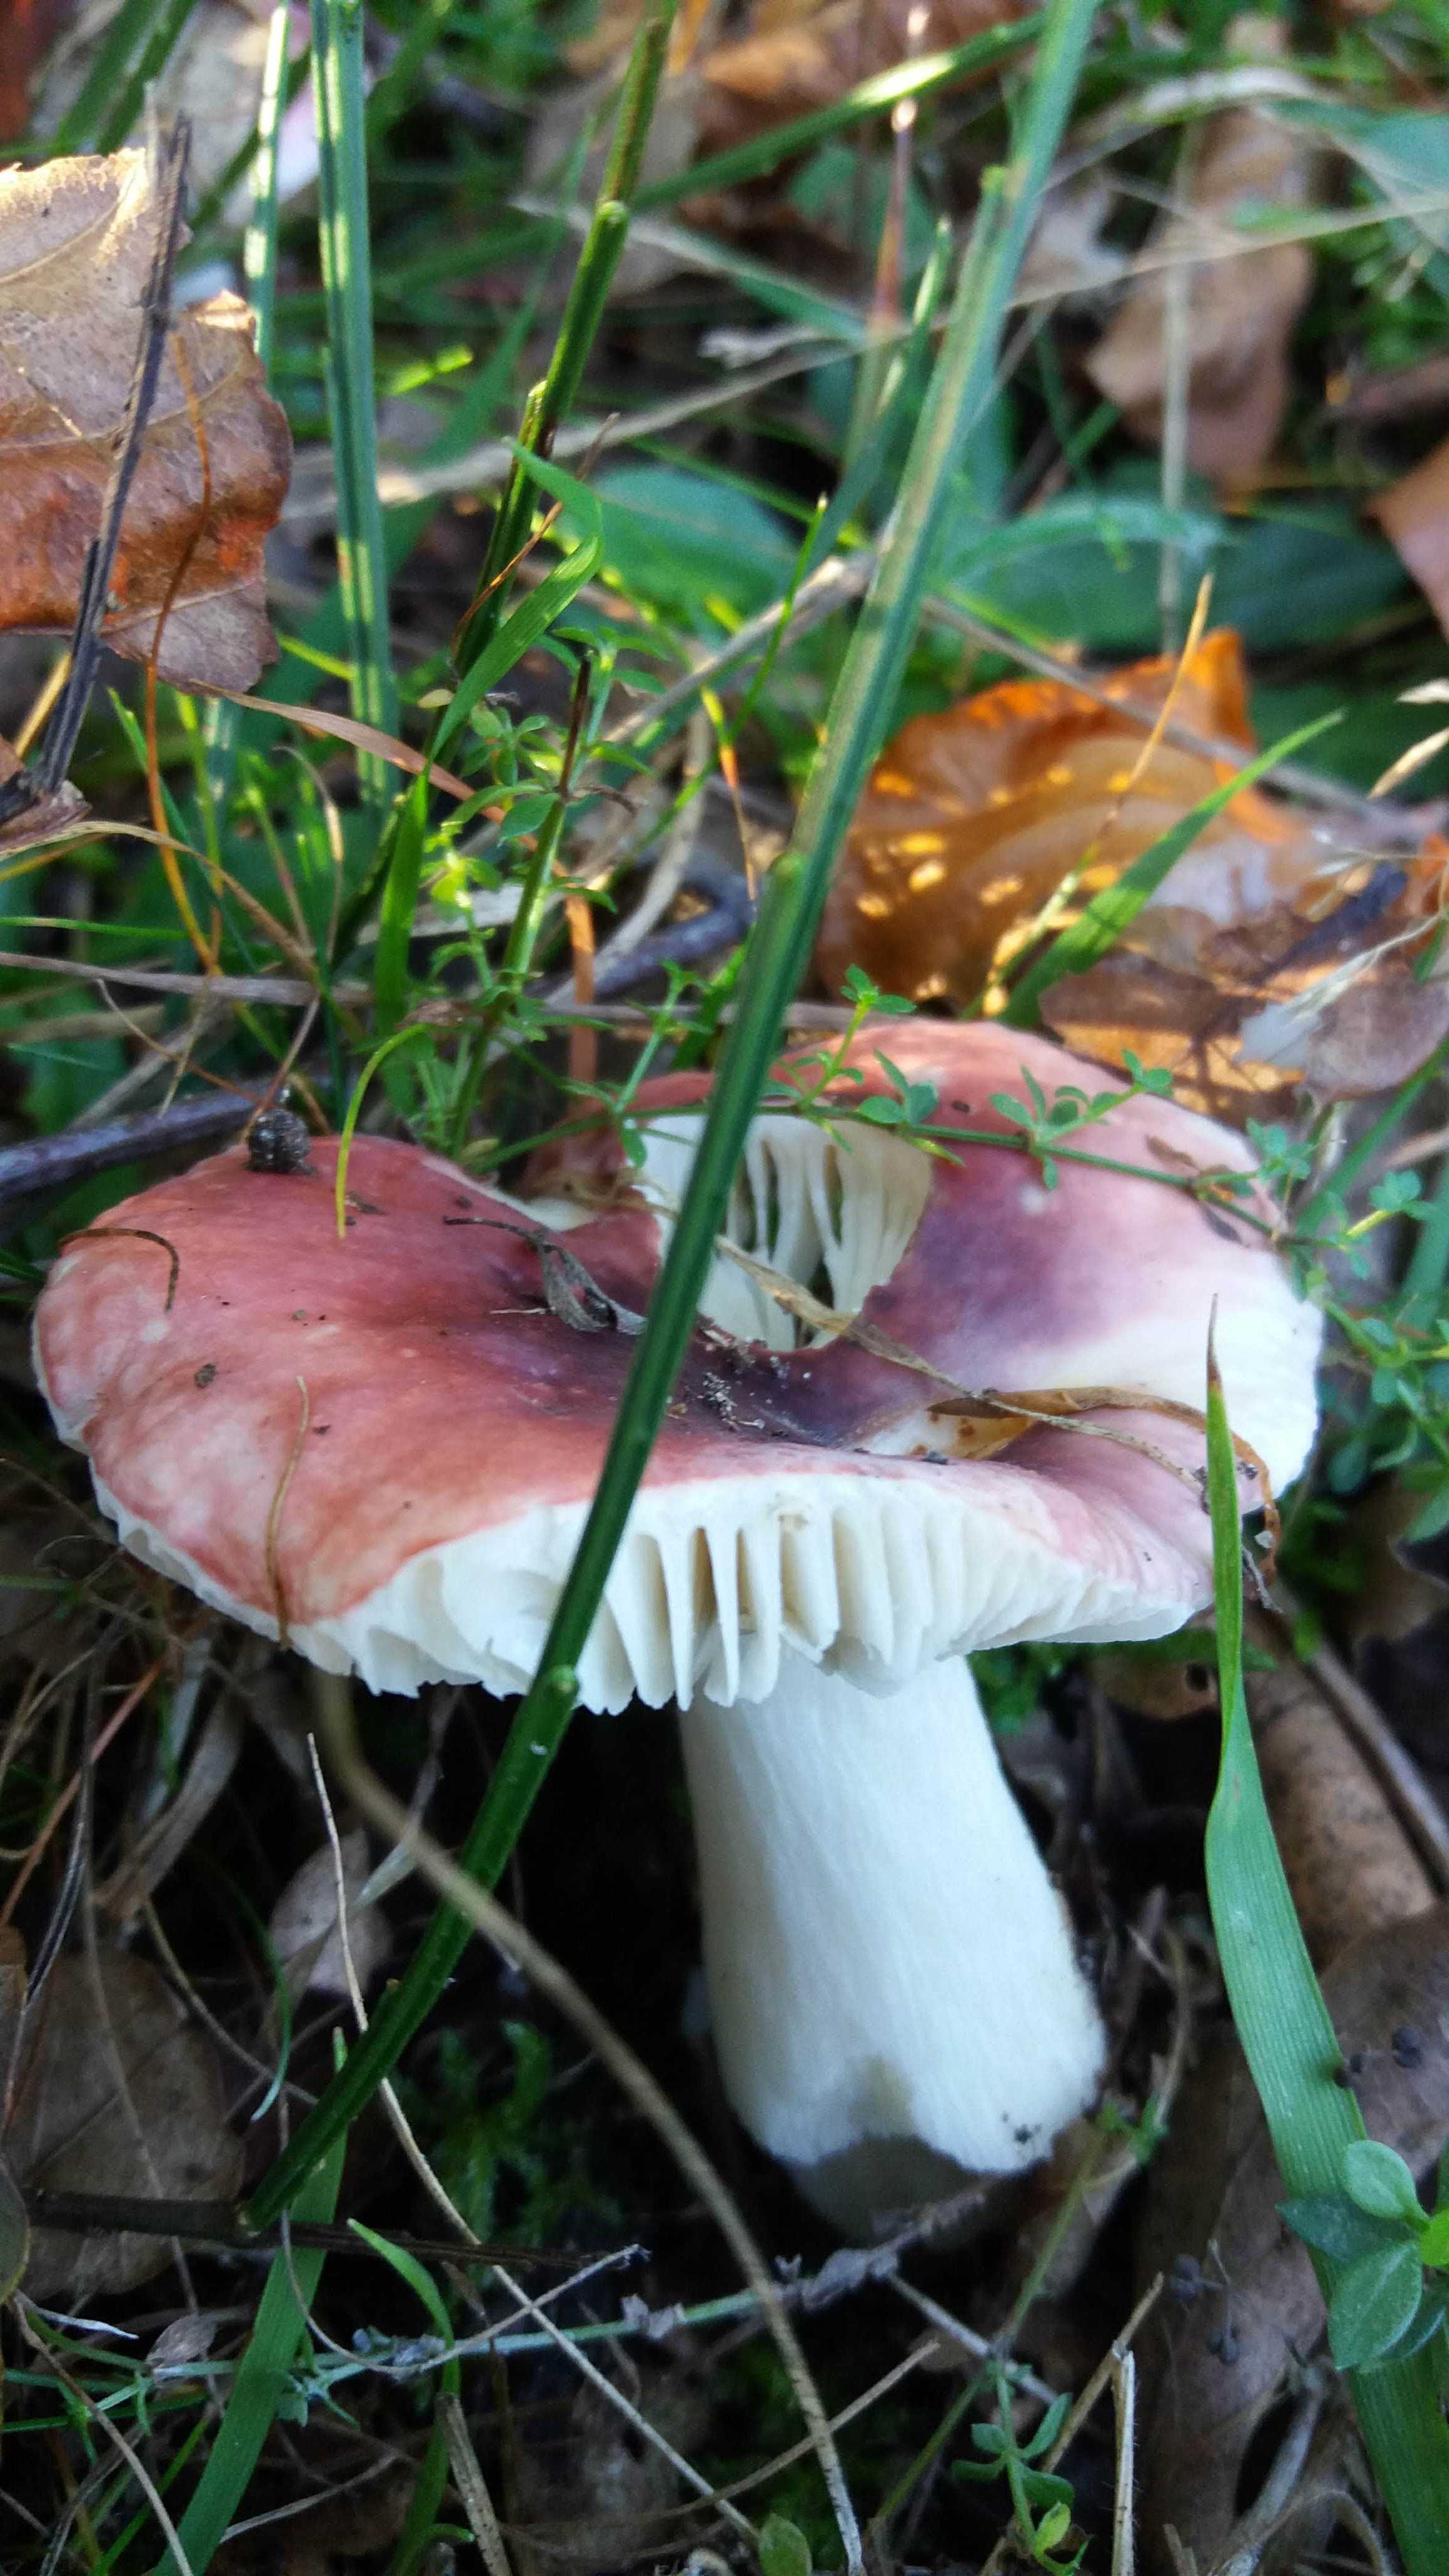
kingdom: Fungi
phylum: Basidiomycota
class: Agaricomycetes
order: Russulales
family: Russulaceae
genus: Russula
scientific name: Russula
